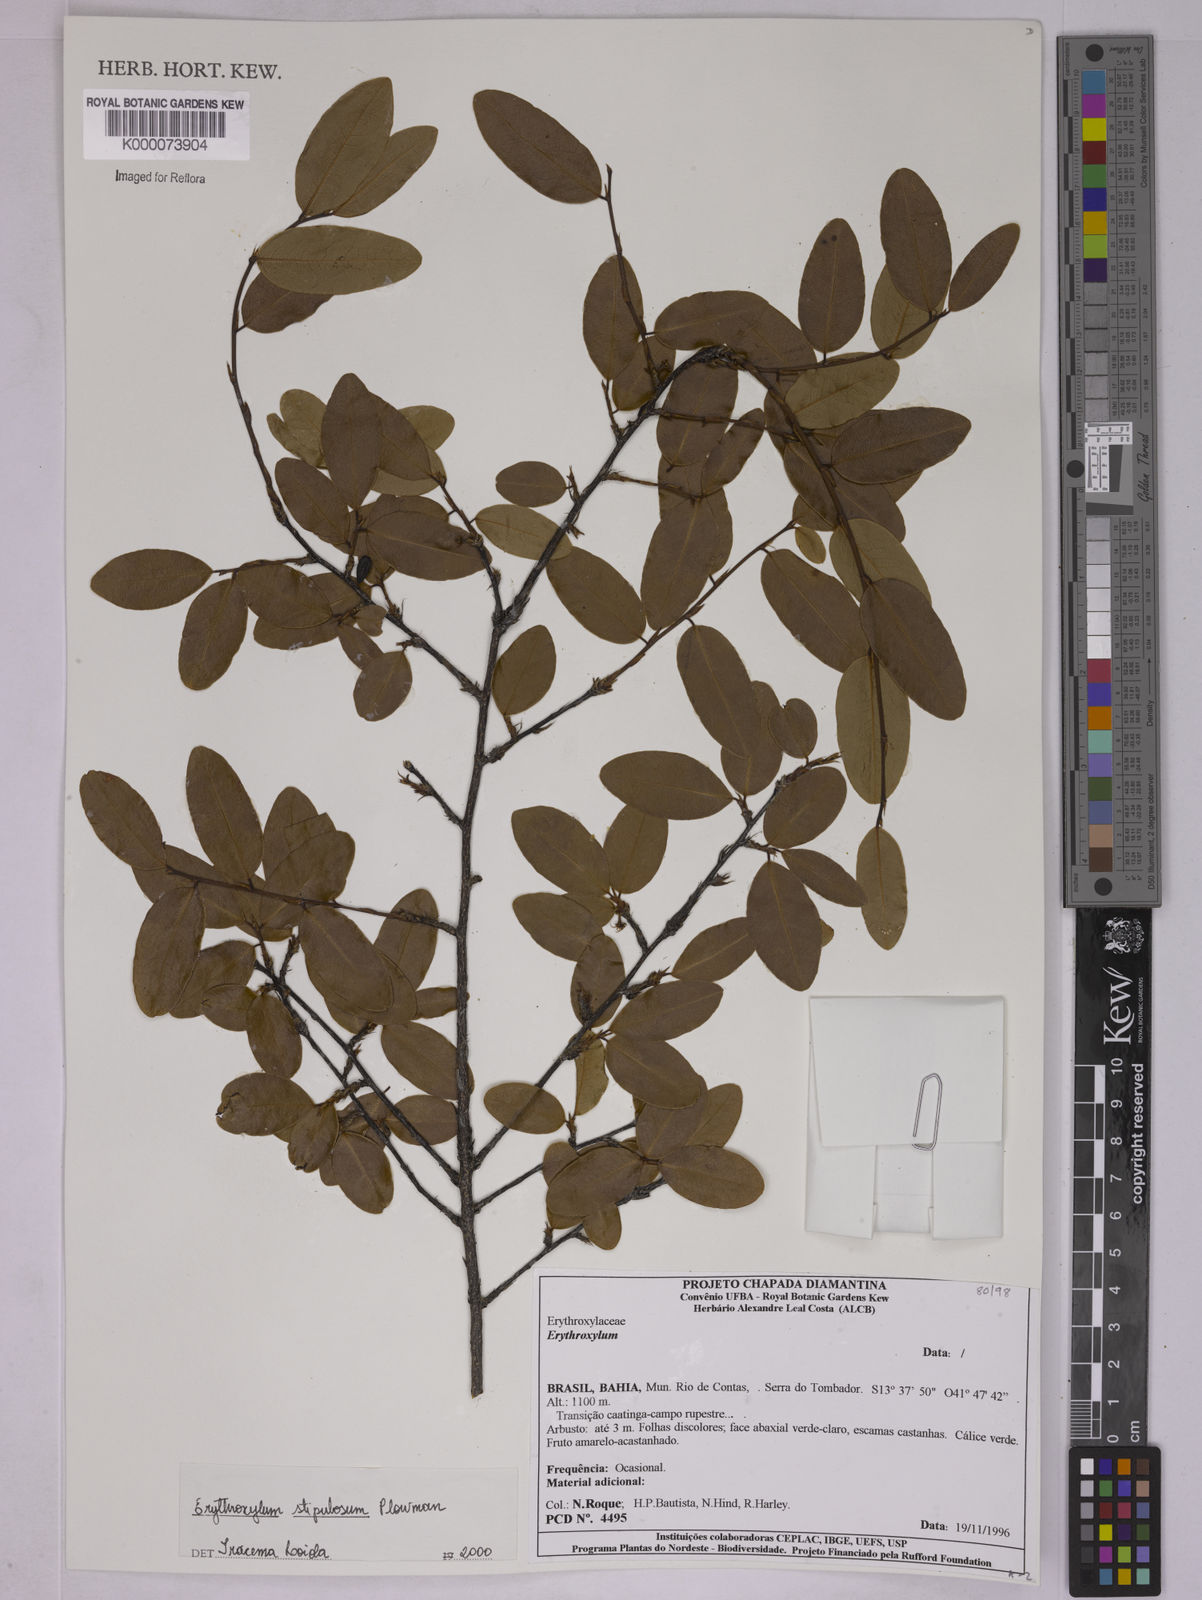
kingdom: Plantae
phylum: Tracheophyta
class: Magnoliopsida
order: Malpighiales
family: Erythroxylaceae
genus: Erythroxylum
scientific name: Erythroxylum stipulosum
